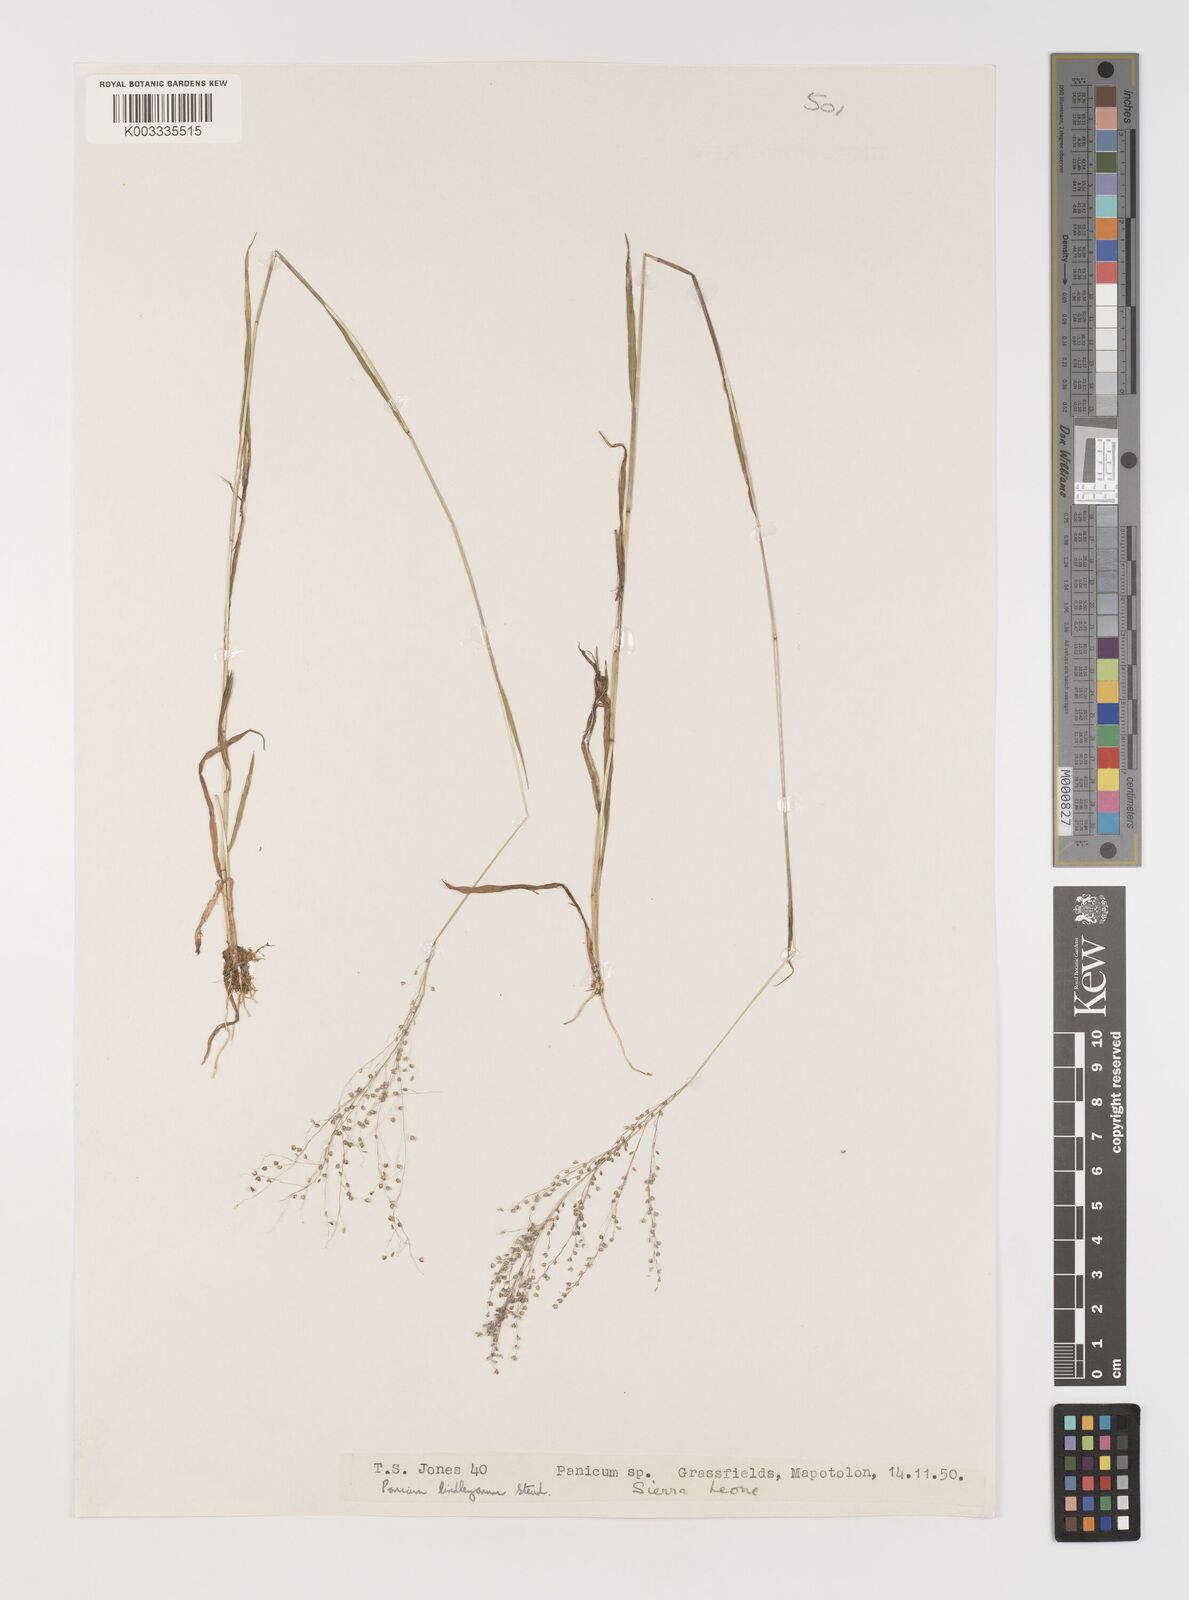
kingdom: Plantae
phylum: Tracheophyta
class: Liliopsida
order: Poales
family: Poaceae
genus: Trichanthecium
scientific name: Trichanthecium tenellum
